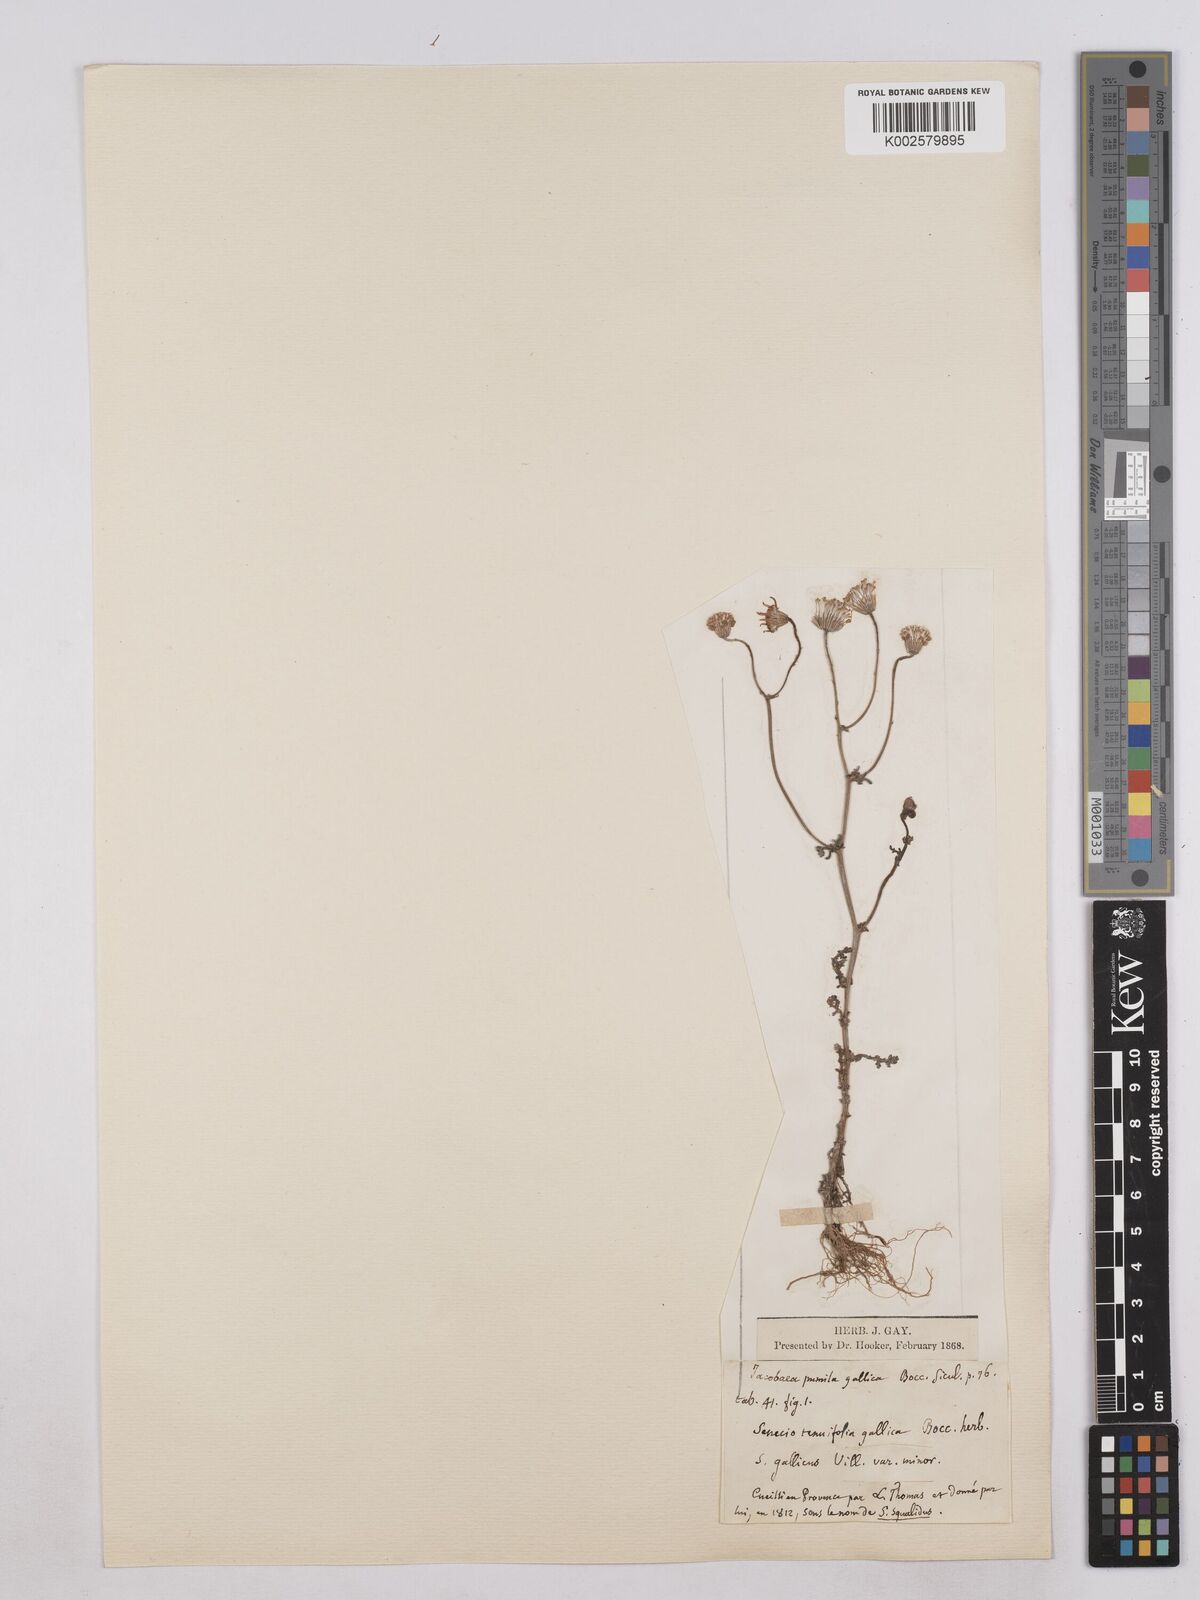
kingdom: Plantae
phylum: Tracheophyta
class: Magnoliopsida
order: Asterales
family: Asteraceae
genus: Senecio
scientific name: Senecio gallicus
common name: French groundsel
